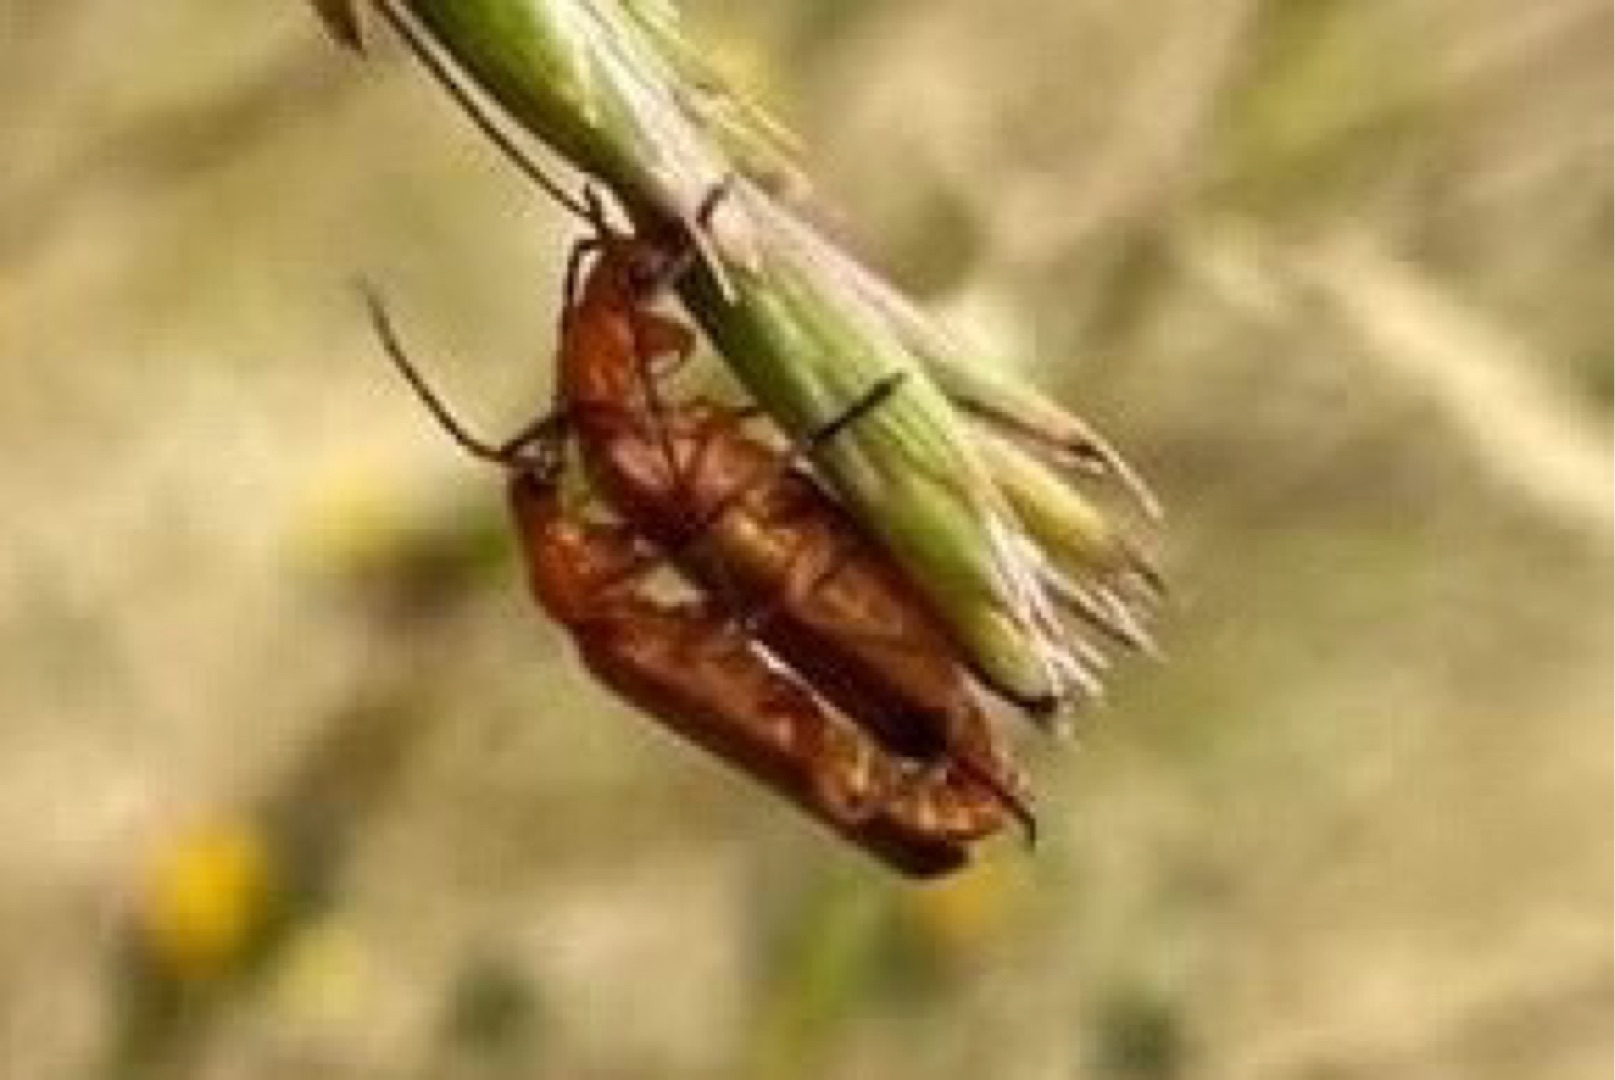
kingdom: Animalia
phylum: Arthropoda
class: Insecta
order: Coleoptera
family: Cantharidae
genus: Rhagonycha
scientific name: Rhagonycha fulva
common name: Præstebille
